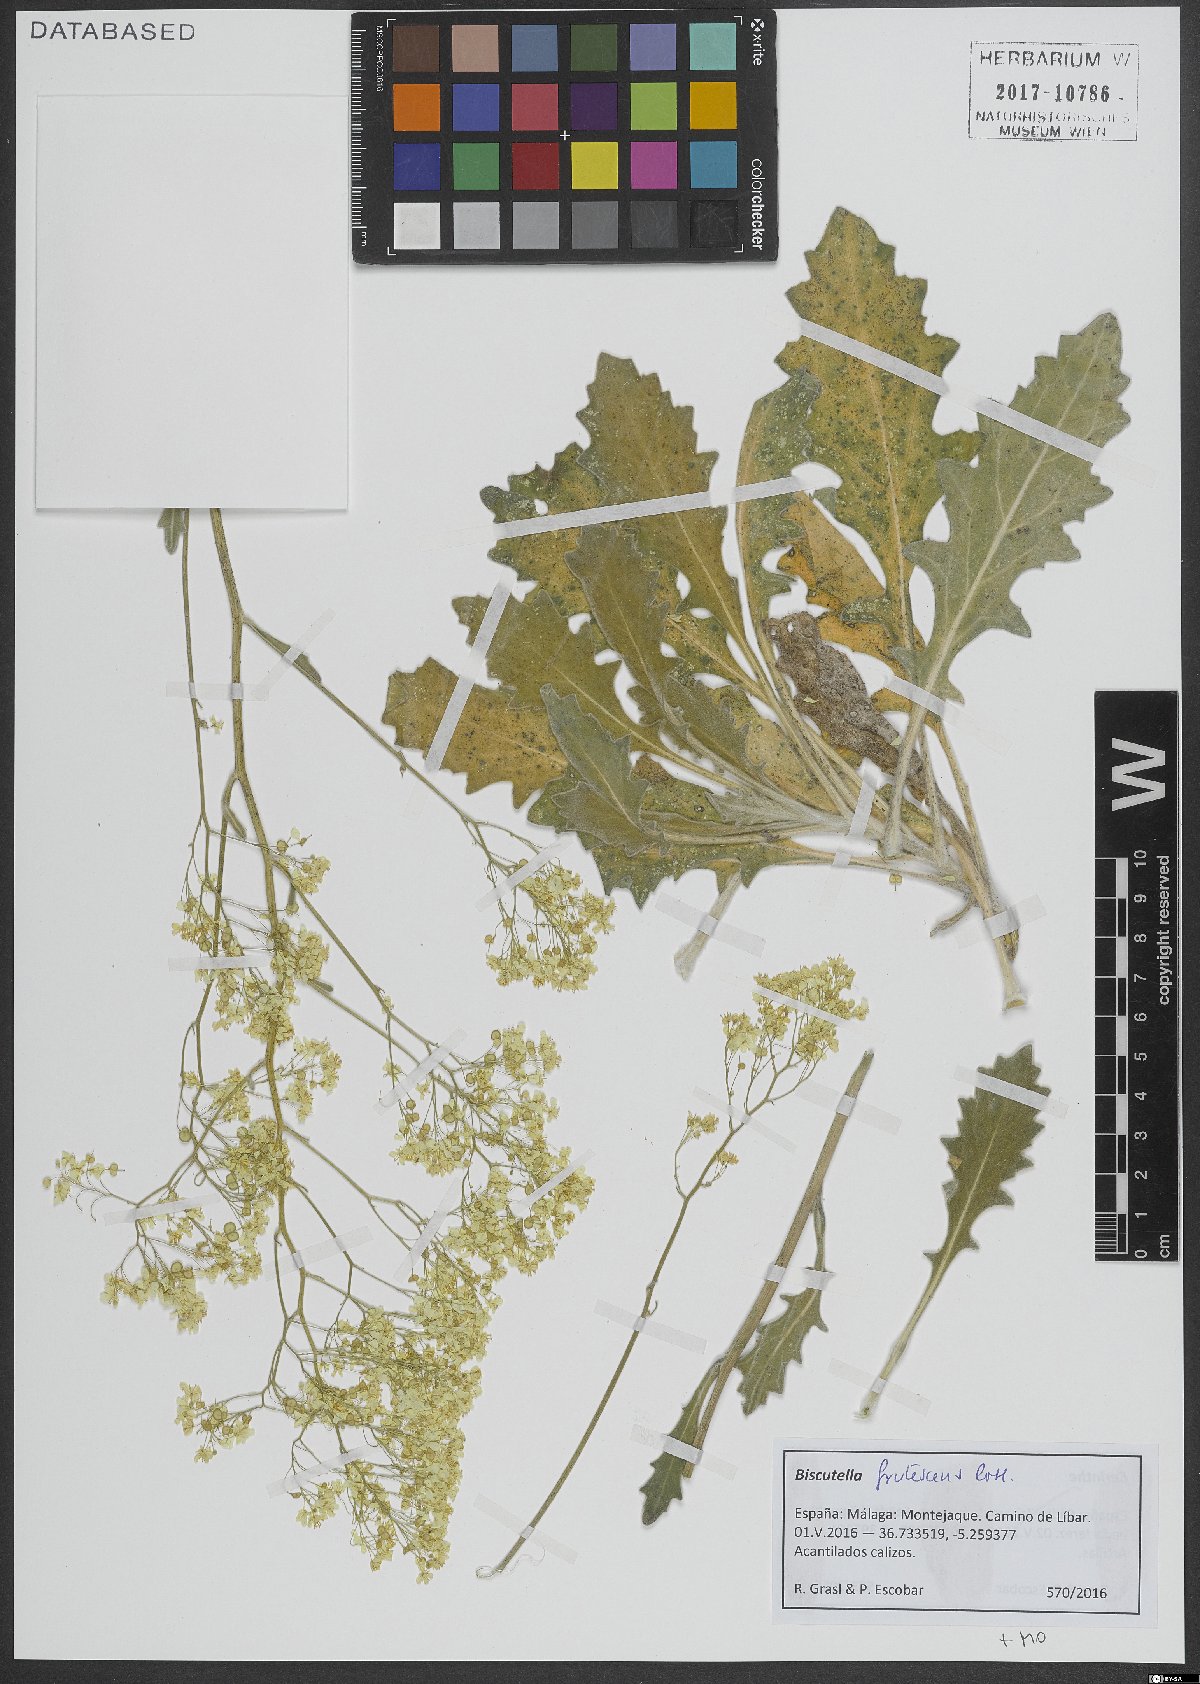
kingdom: Plantae
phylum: Tracheophyta
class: Magnoliopsida
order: Brassicales
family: Brassicaceae
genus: Biscutella
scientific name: Biscutella frutescens
